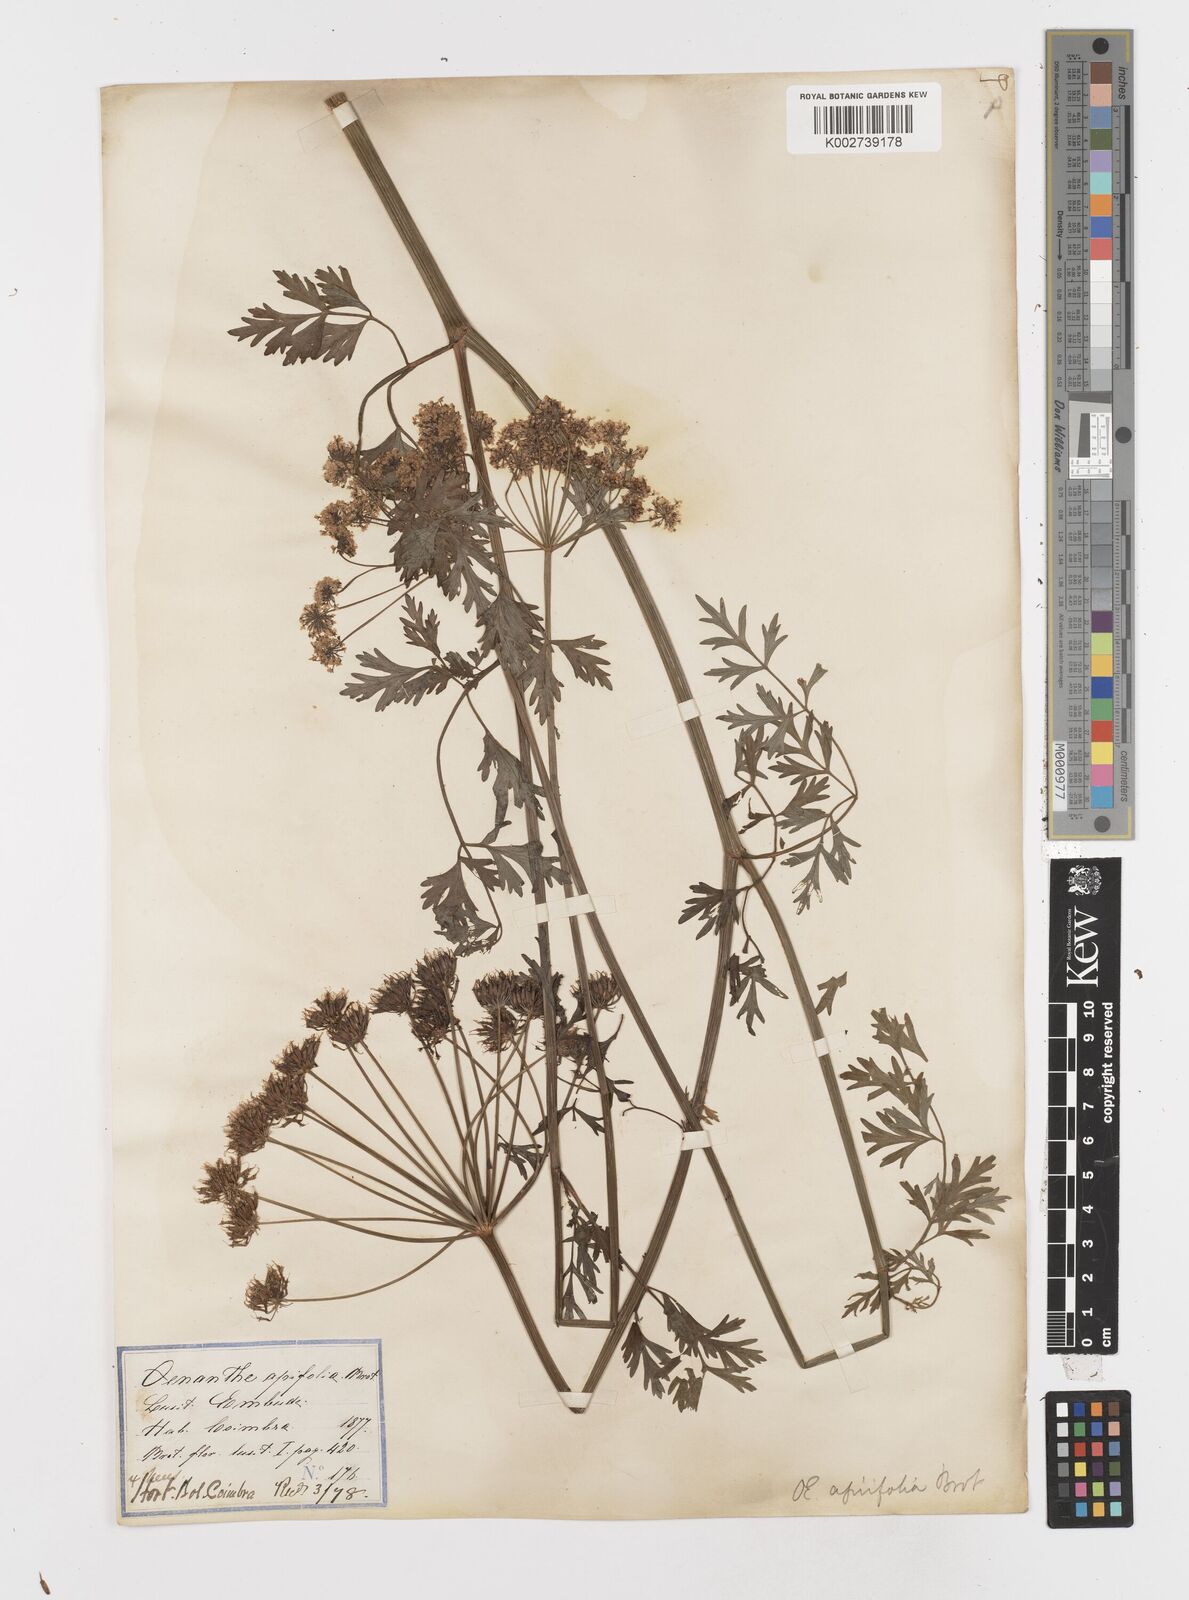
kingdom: Plantae
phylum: Tracheophyta
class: Magnoliopsida
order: Apiales
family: Apiaceae
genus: Oenanthe
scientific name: Oenanthe crocata
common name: Hemlock water-dropwort
